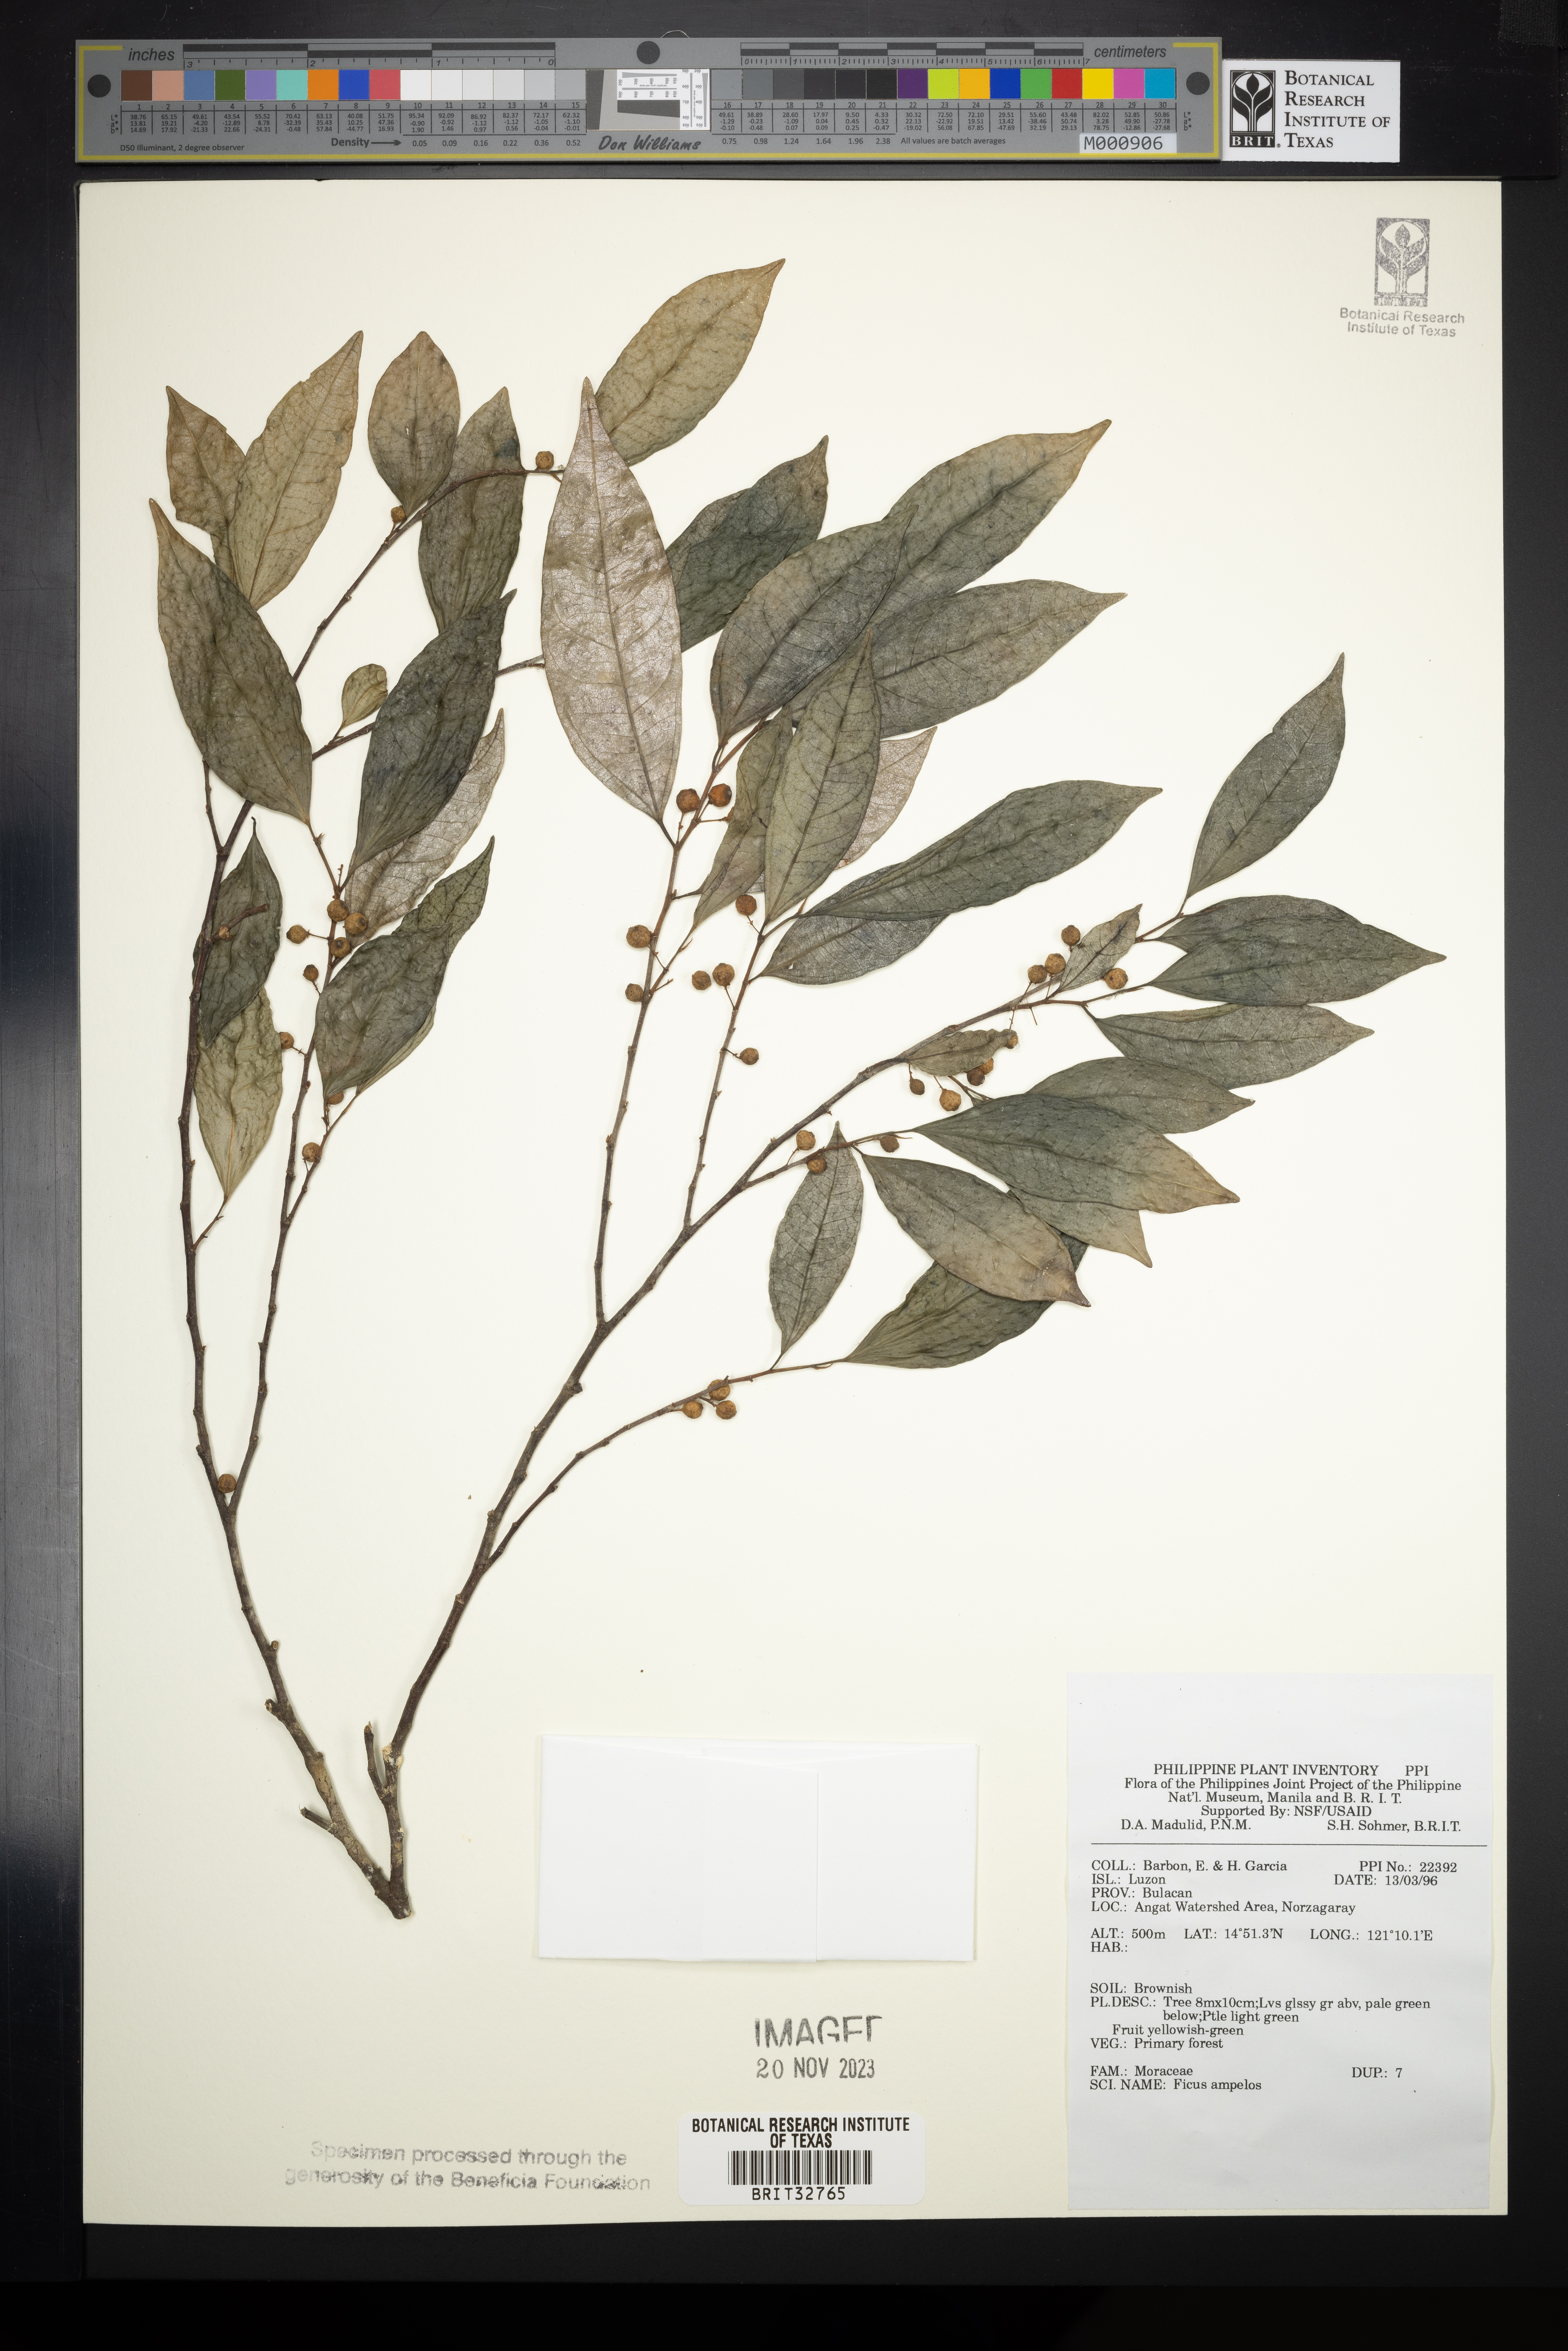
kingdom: Plantae
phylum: Tracheophyta
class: Magnoliopsida
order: Rosales
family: Moraceae
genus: Ficus
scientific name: Ficus ampelos
